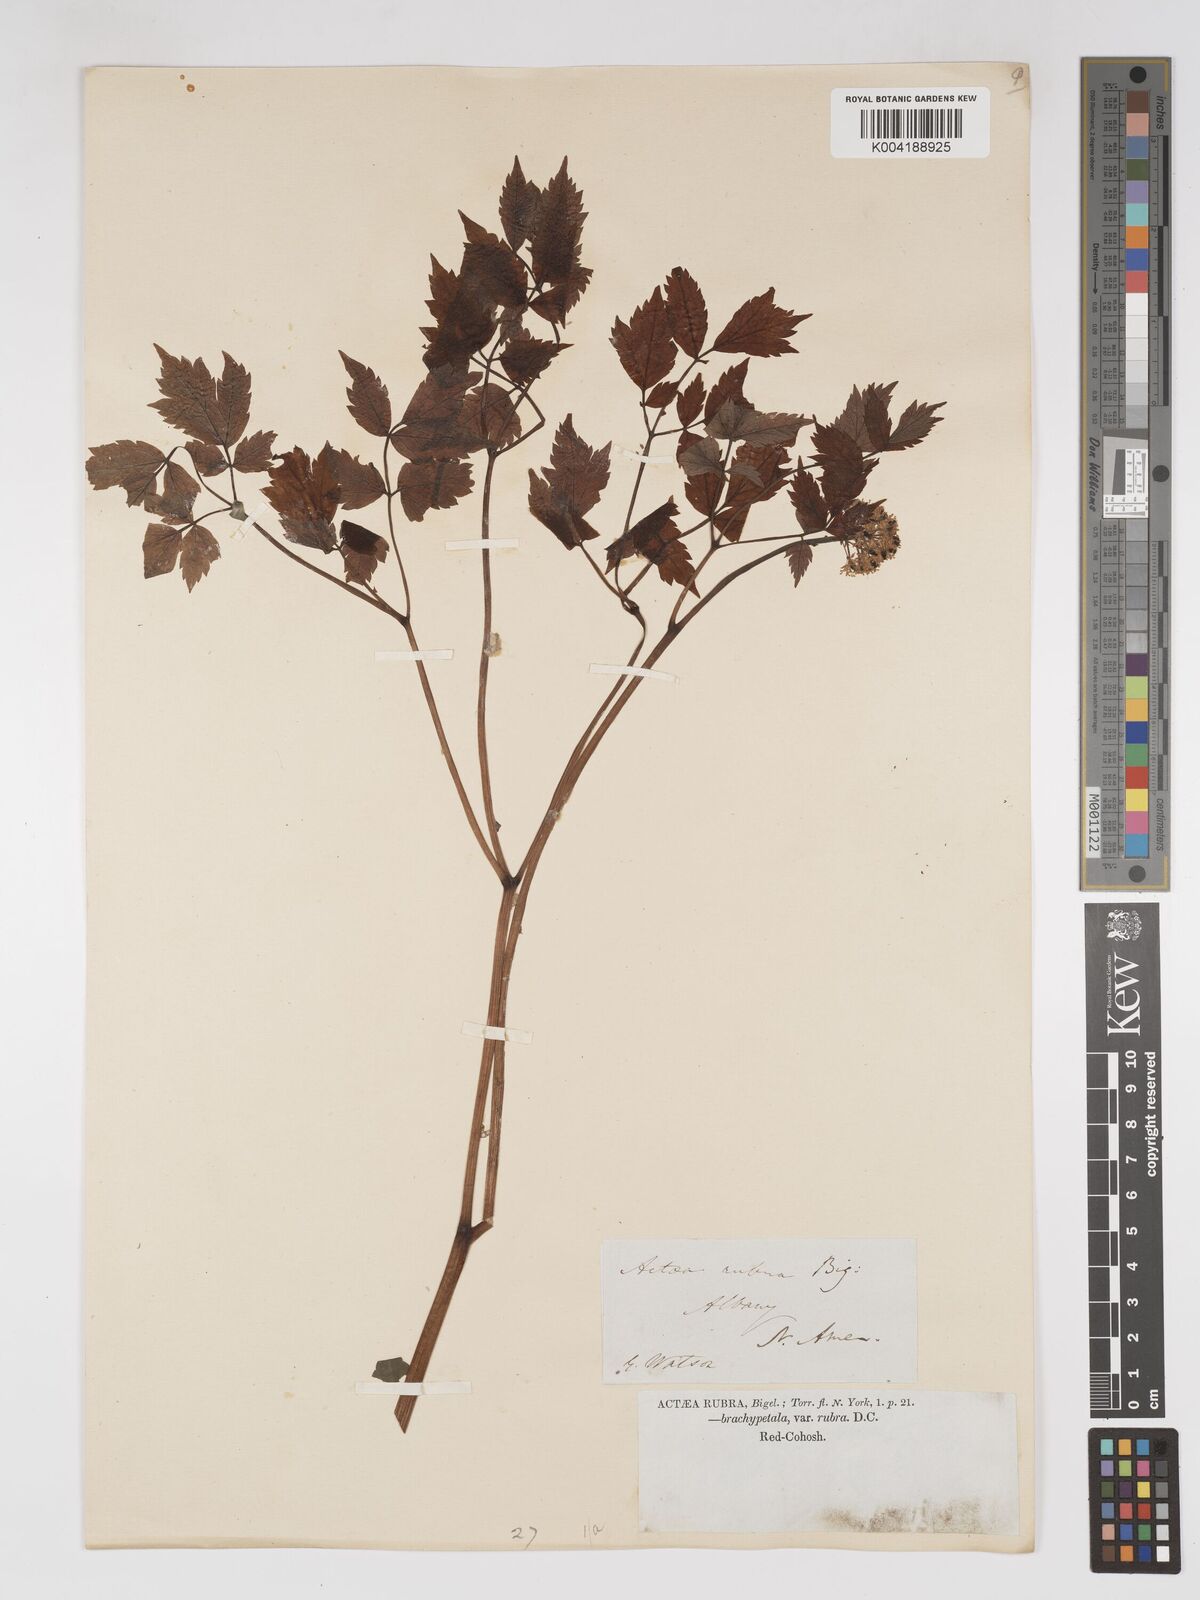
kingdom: Plantae
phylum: Tracheophyta
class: Magnoliopsida
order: Ranunculales
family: Ranunculaceae
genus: Actaea
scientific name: Actaea rubra
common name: Red baneberry
